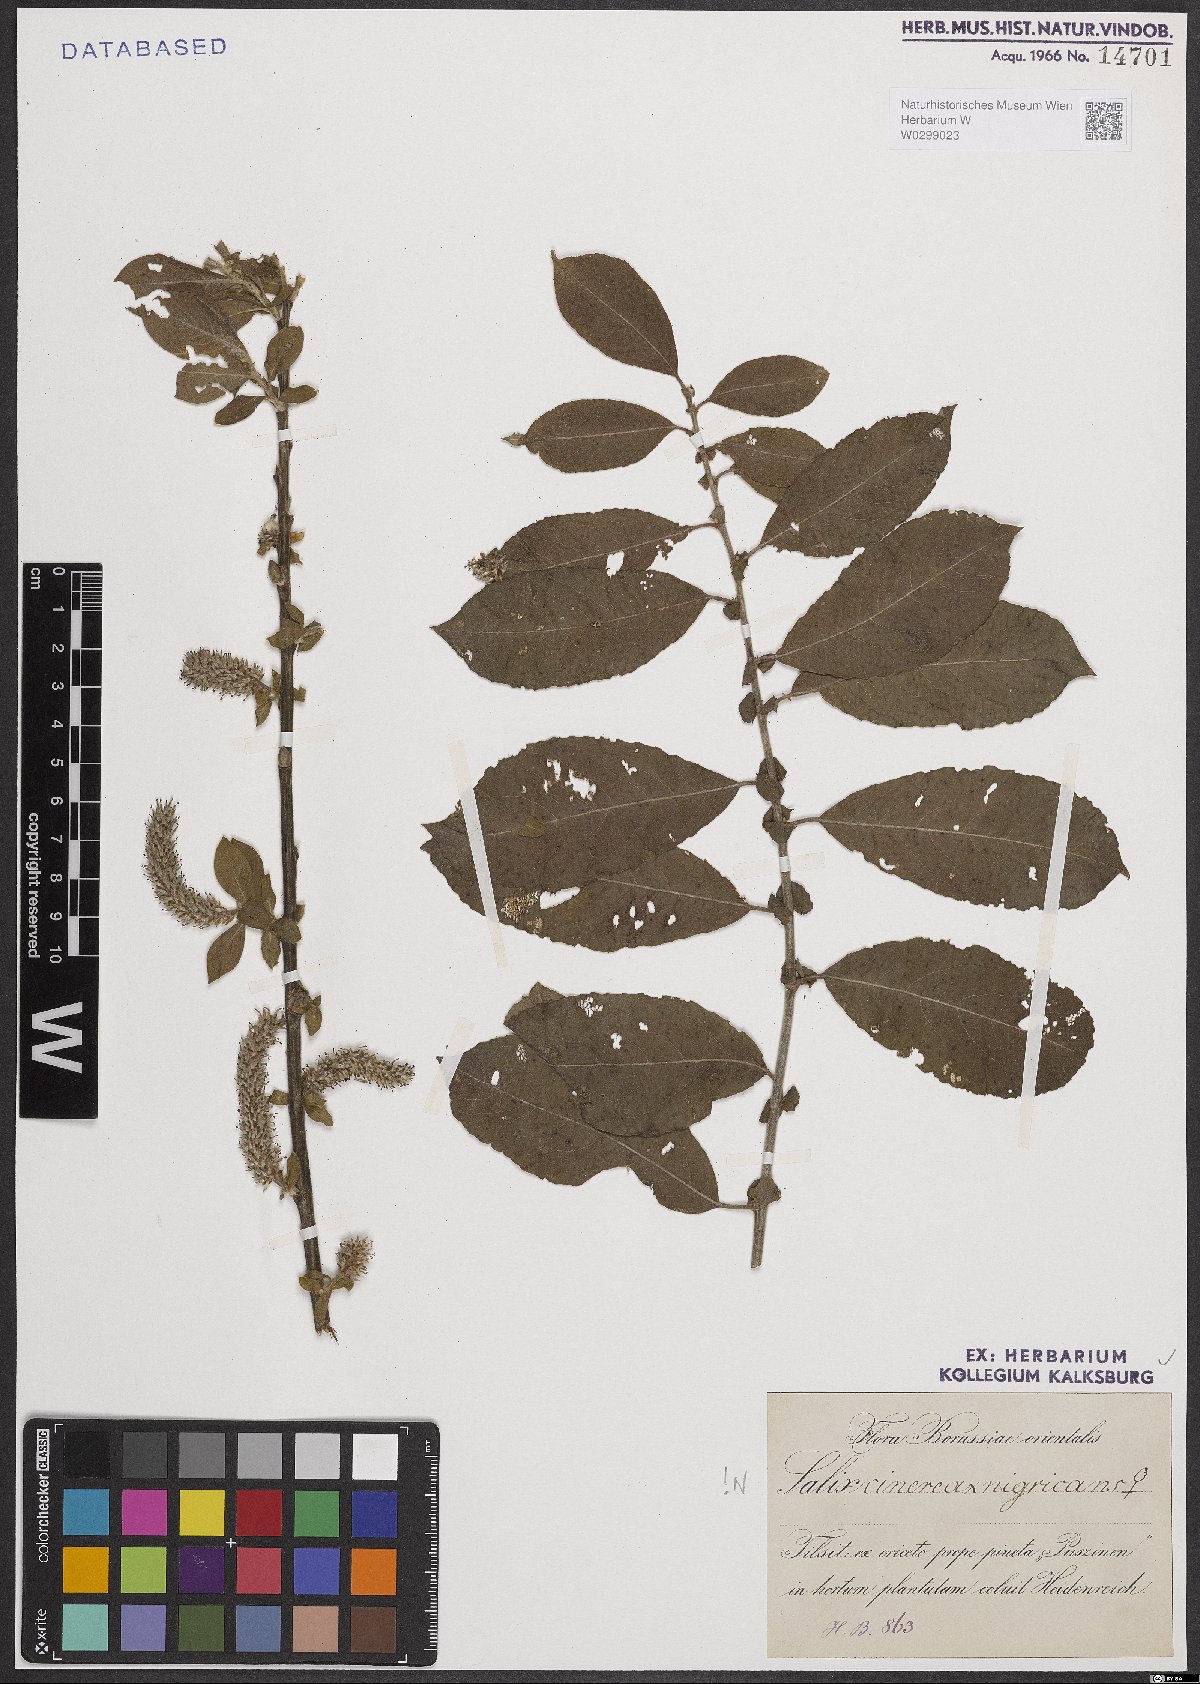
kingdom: Plantae
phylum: Tracheophyta
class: Magnoliopsida
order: Malpighiales
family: Salicaceae
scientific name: Salicaceae
